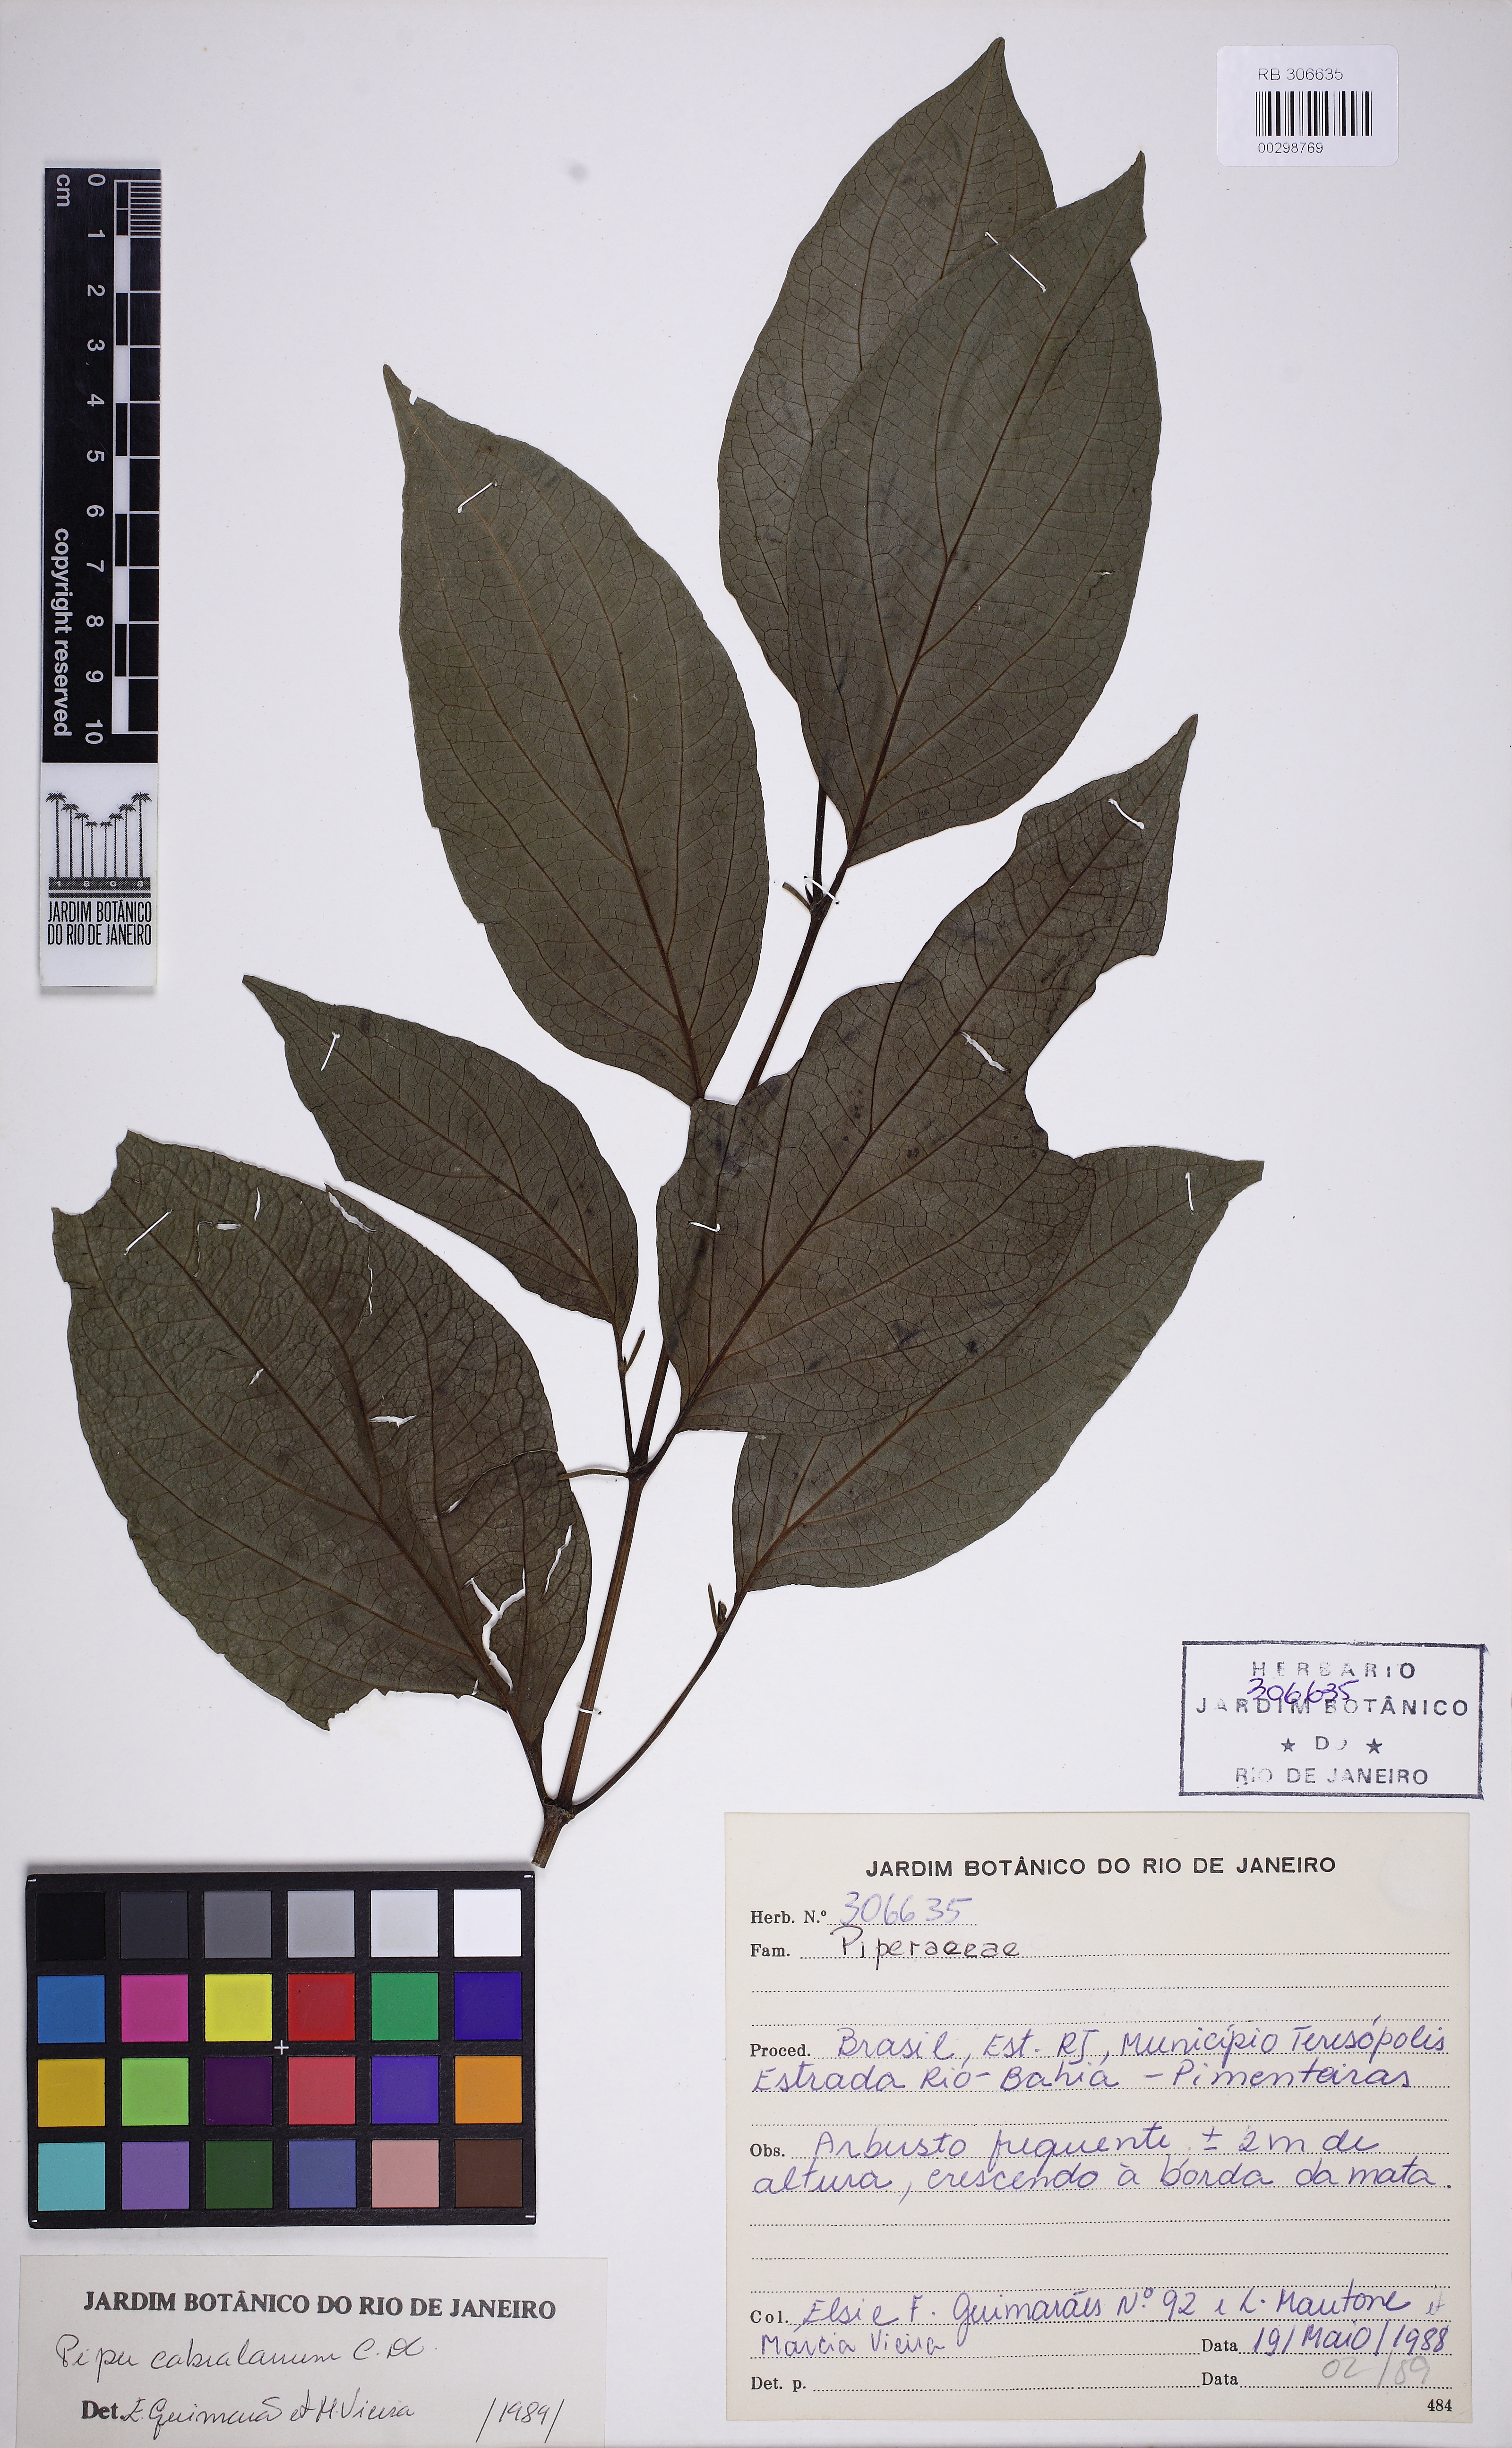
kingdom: Plantae
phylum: Tracheophyta
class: Magnoliopsida
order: Piperales
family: Piperaceae
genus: Piper
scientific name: Piper cabralanum
